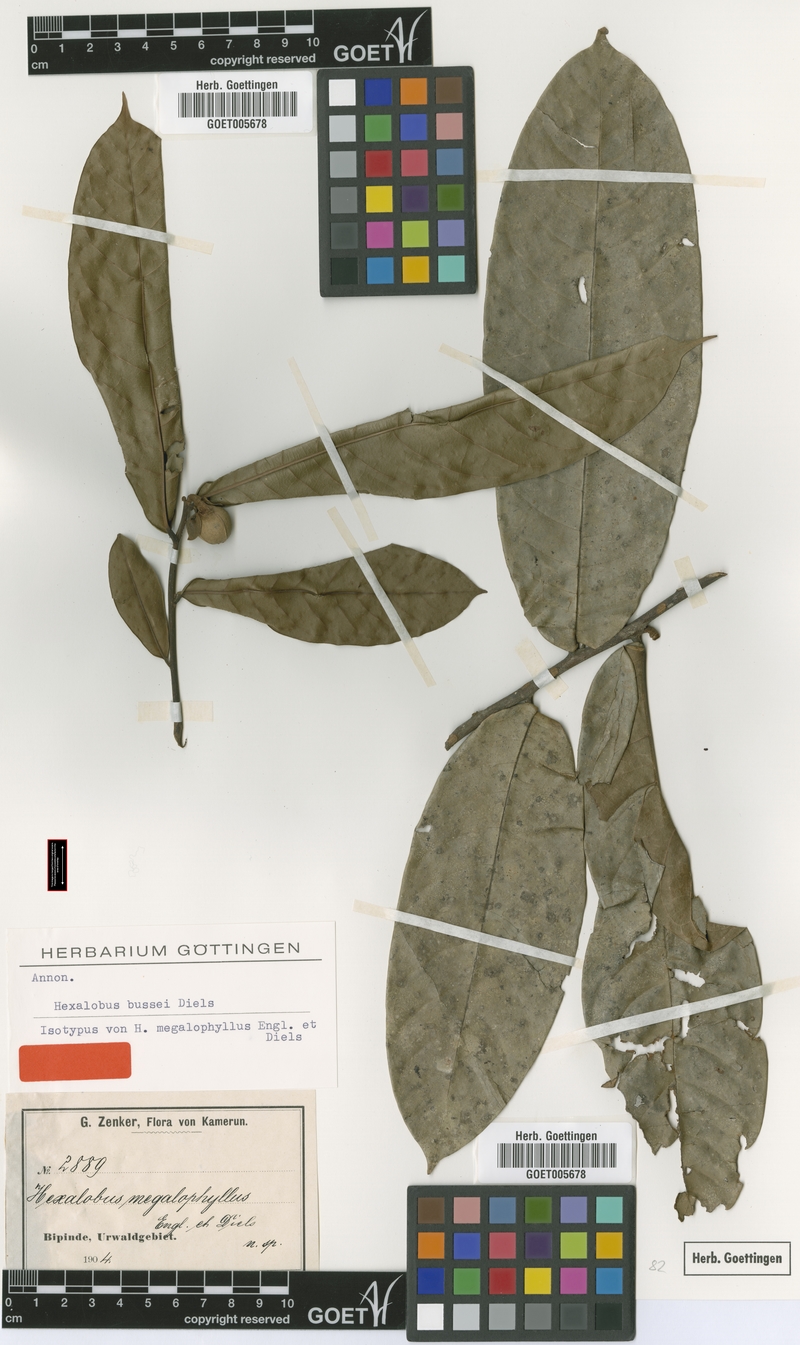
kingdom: Plantae
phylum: Tracheophyta
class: Magnoliopsida
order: Magnoliales
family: Annonaceae
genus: Hexalobus
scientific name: Hexalobus bussei
